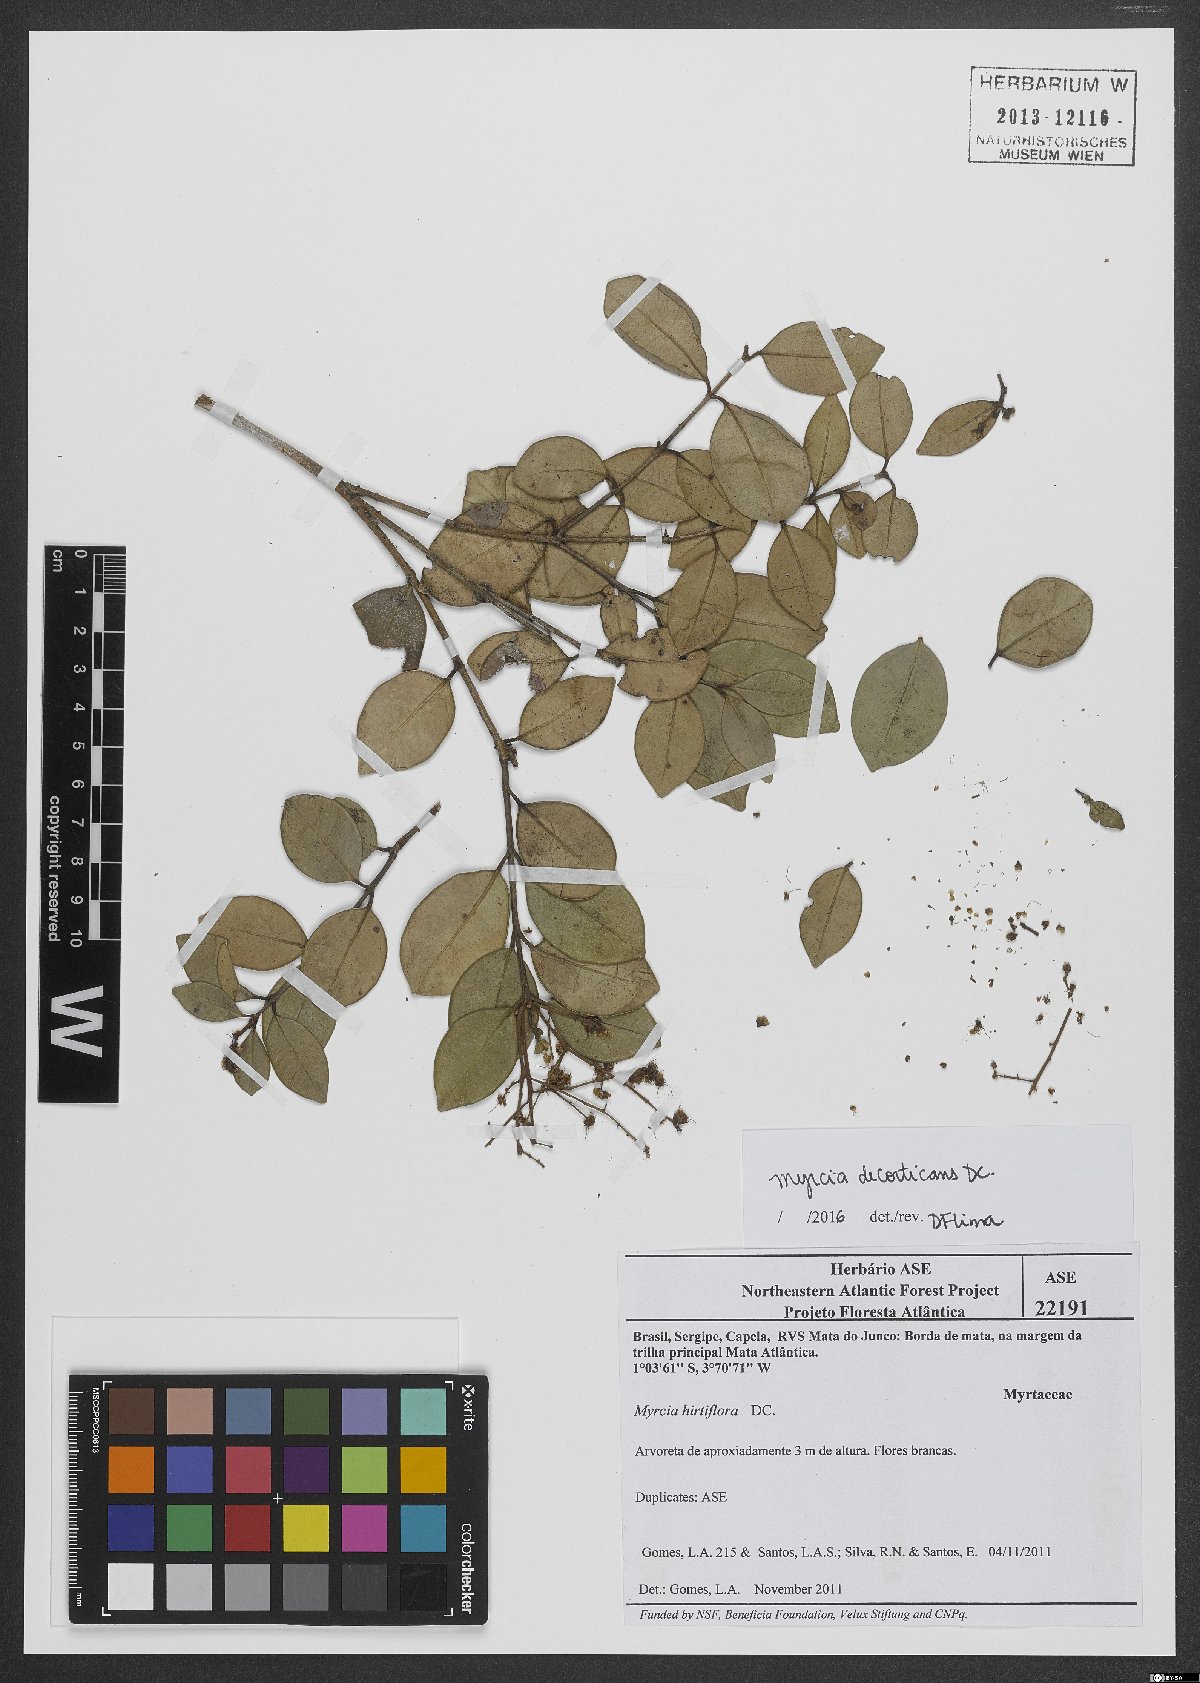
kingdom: Plantae
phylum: Tracheophyta
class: Magnoliopsida
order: Myrtales
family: Myrtaceae
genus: Myrcia
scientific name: Myrcia decorticans
